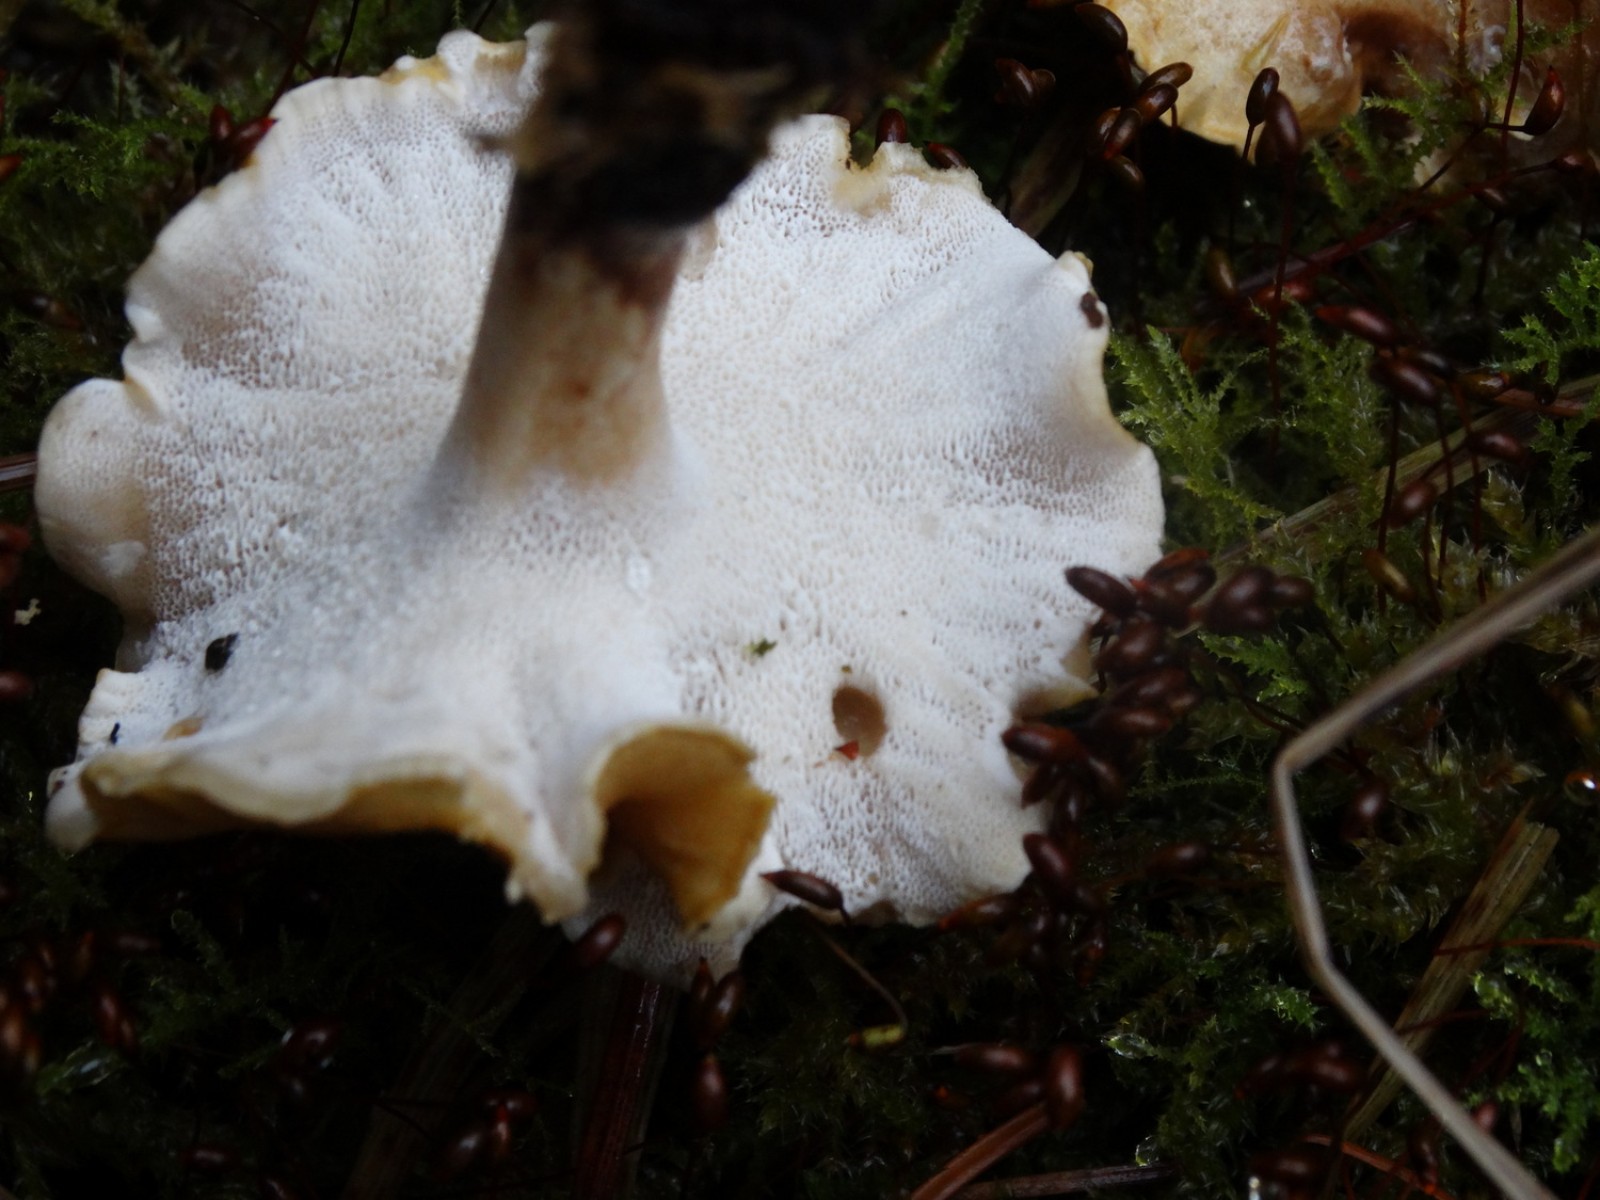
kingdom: Fungi
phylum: Basidiomycota
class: Agaricomycetes
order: Polyporales
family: Polyporaceae
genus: Cerioporus
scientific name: Cerioporus varius
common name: foranderlig stilkporesvamp
